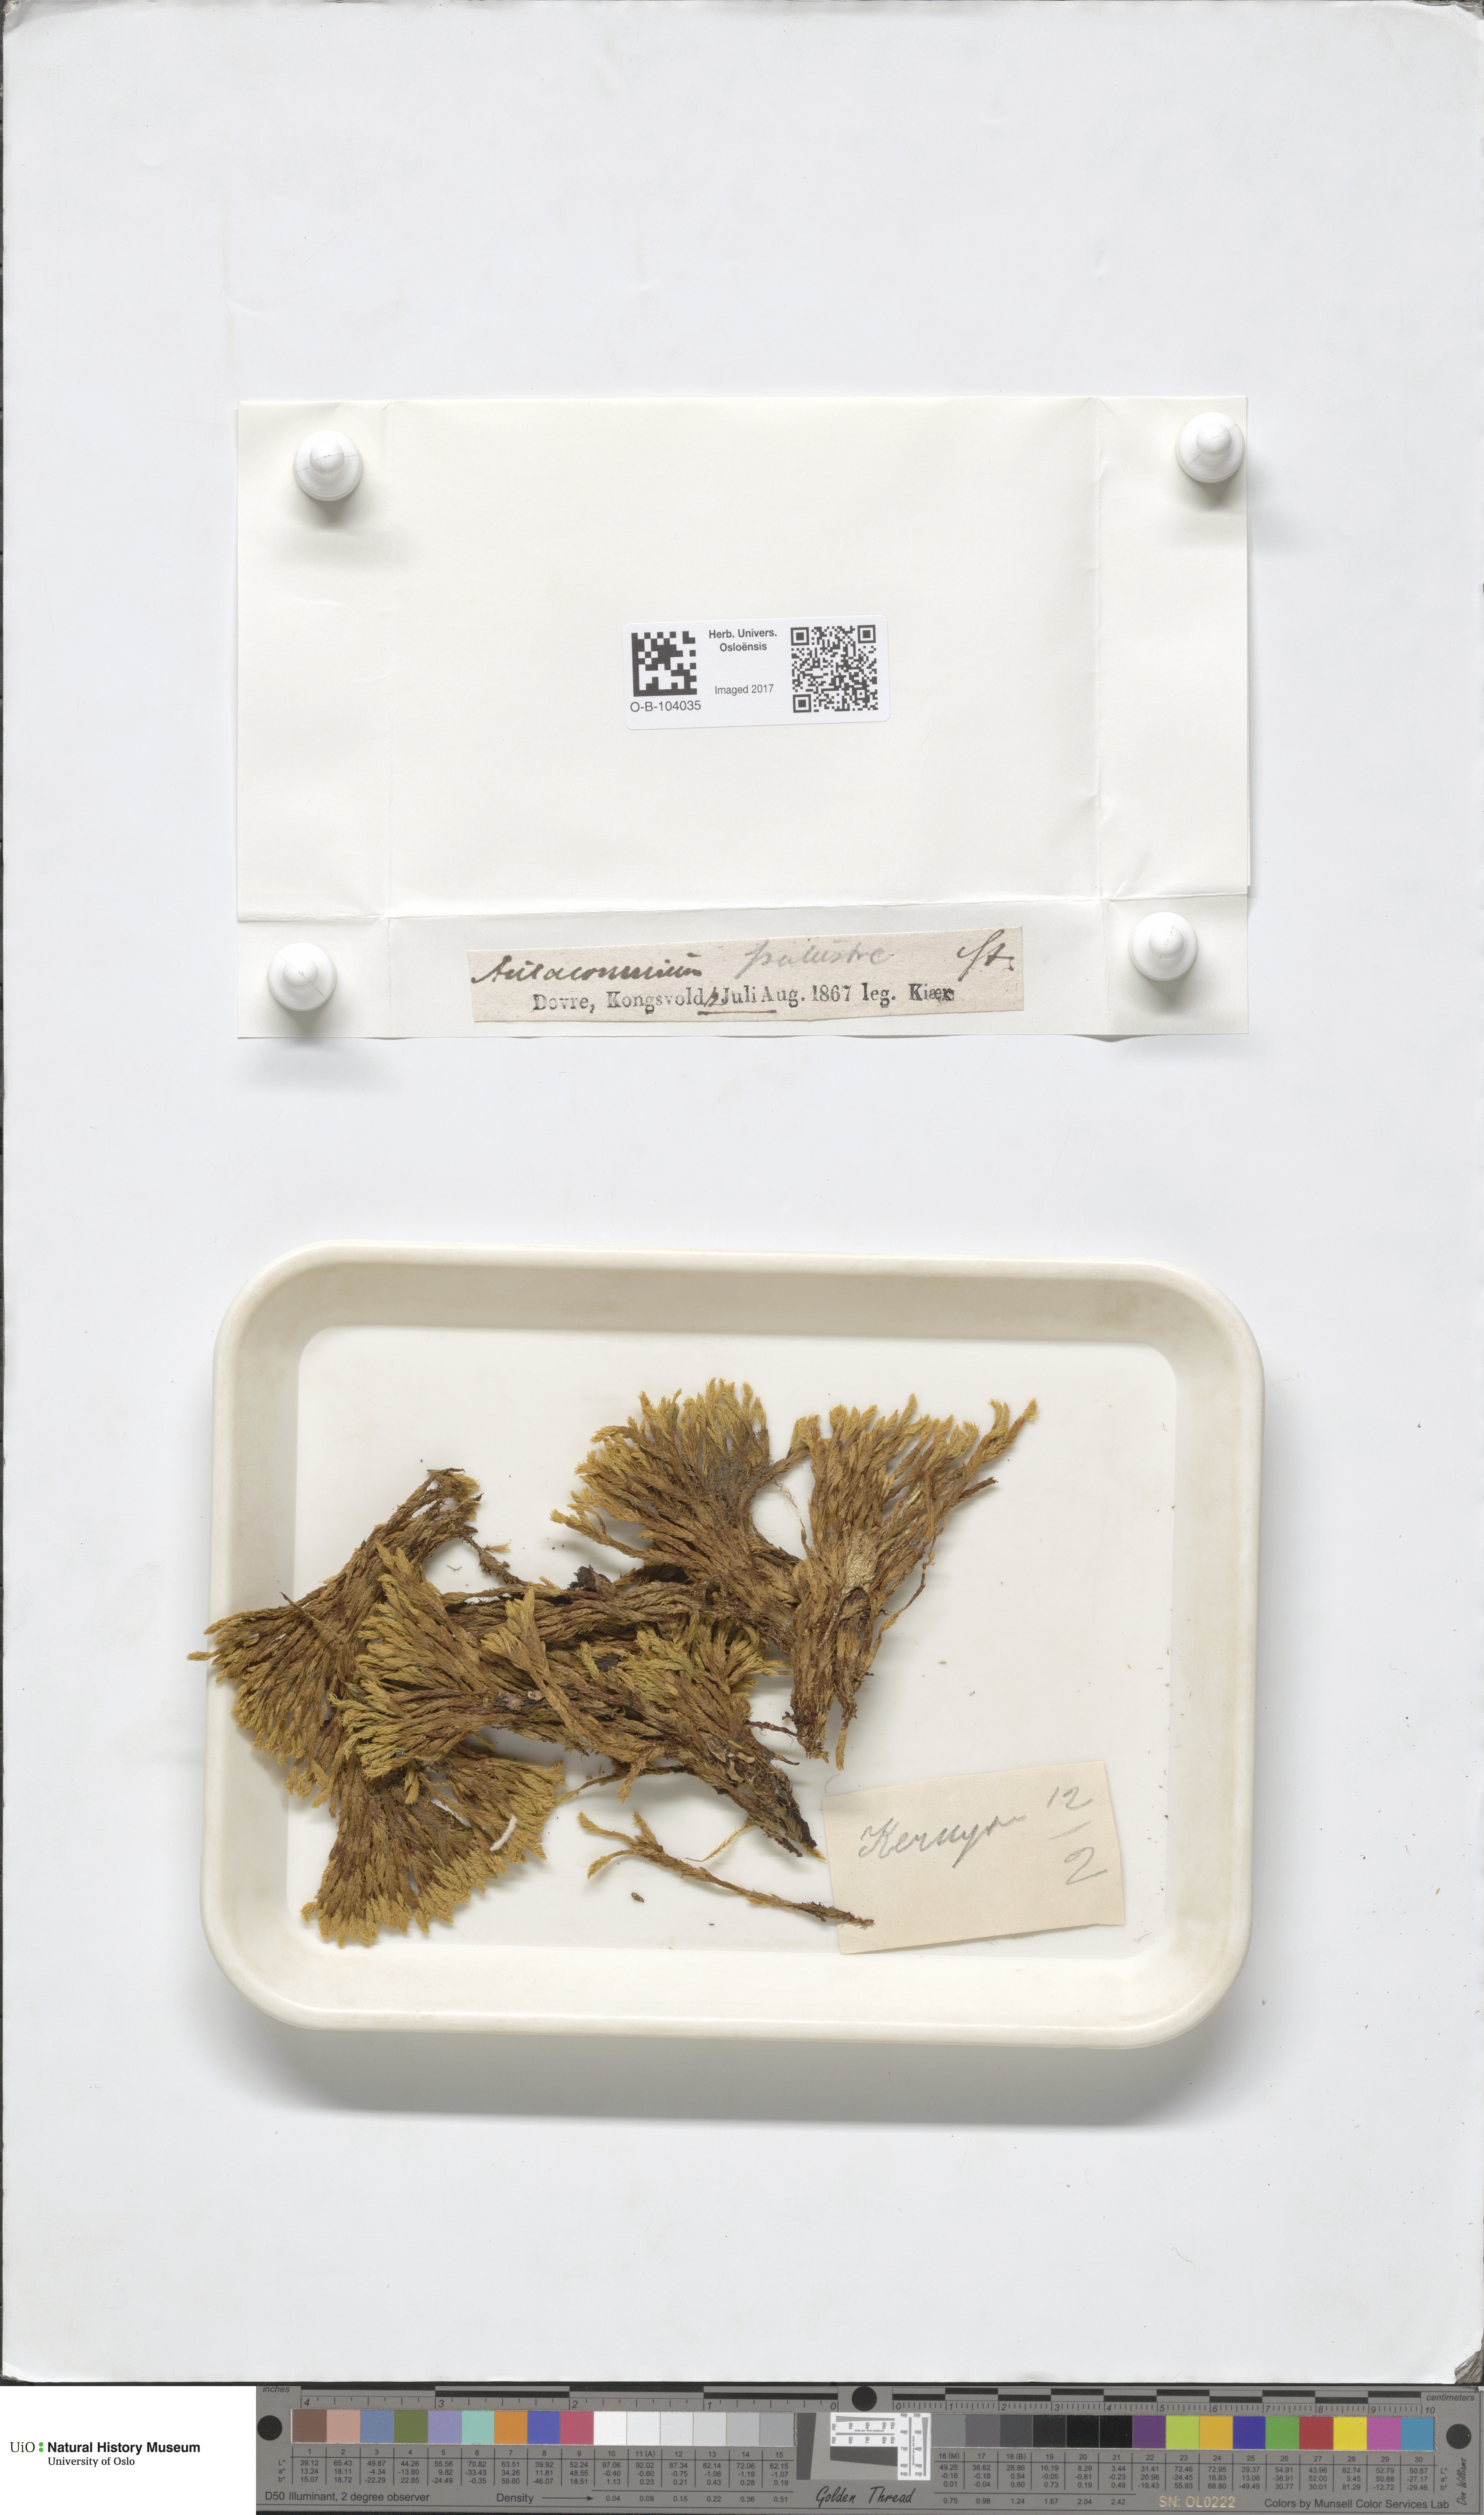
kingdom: Plantae
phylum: Bryophyta
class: Bryopsida
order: Aulacomniales
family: Aulacomniaceae
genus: Aulacomnium
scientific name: Aulacomnium palustre
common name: Bog groove-moss
